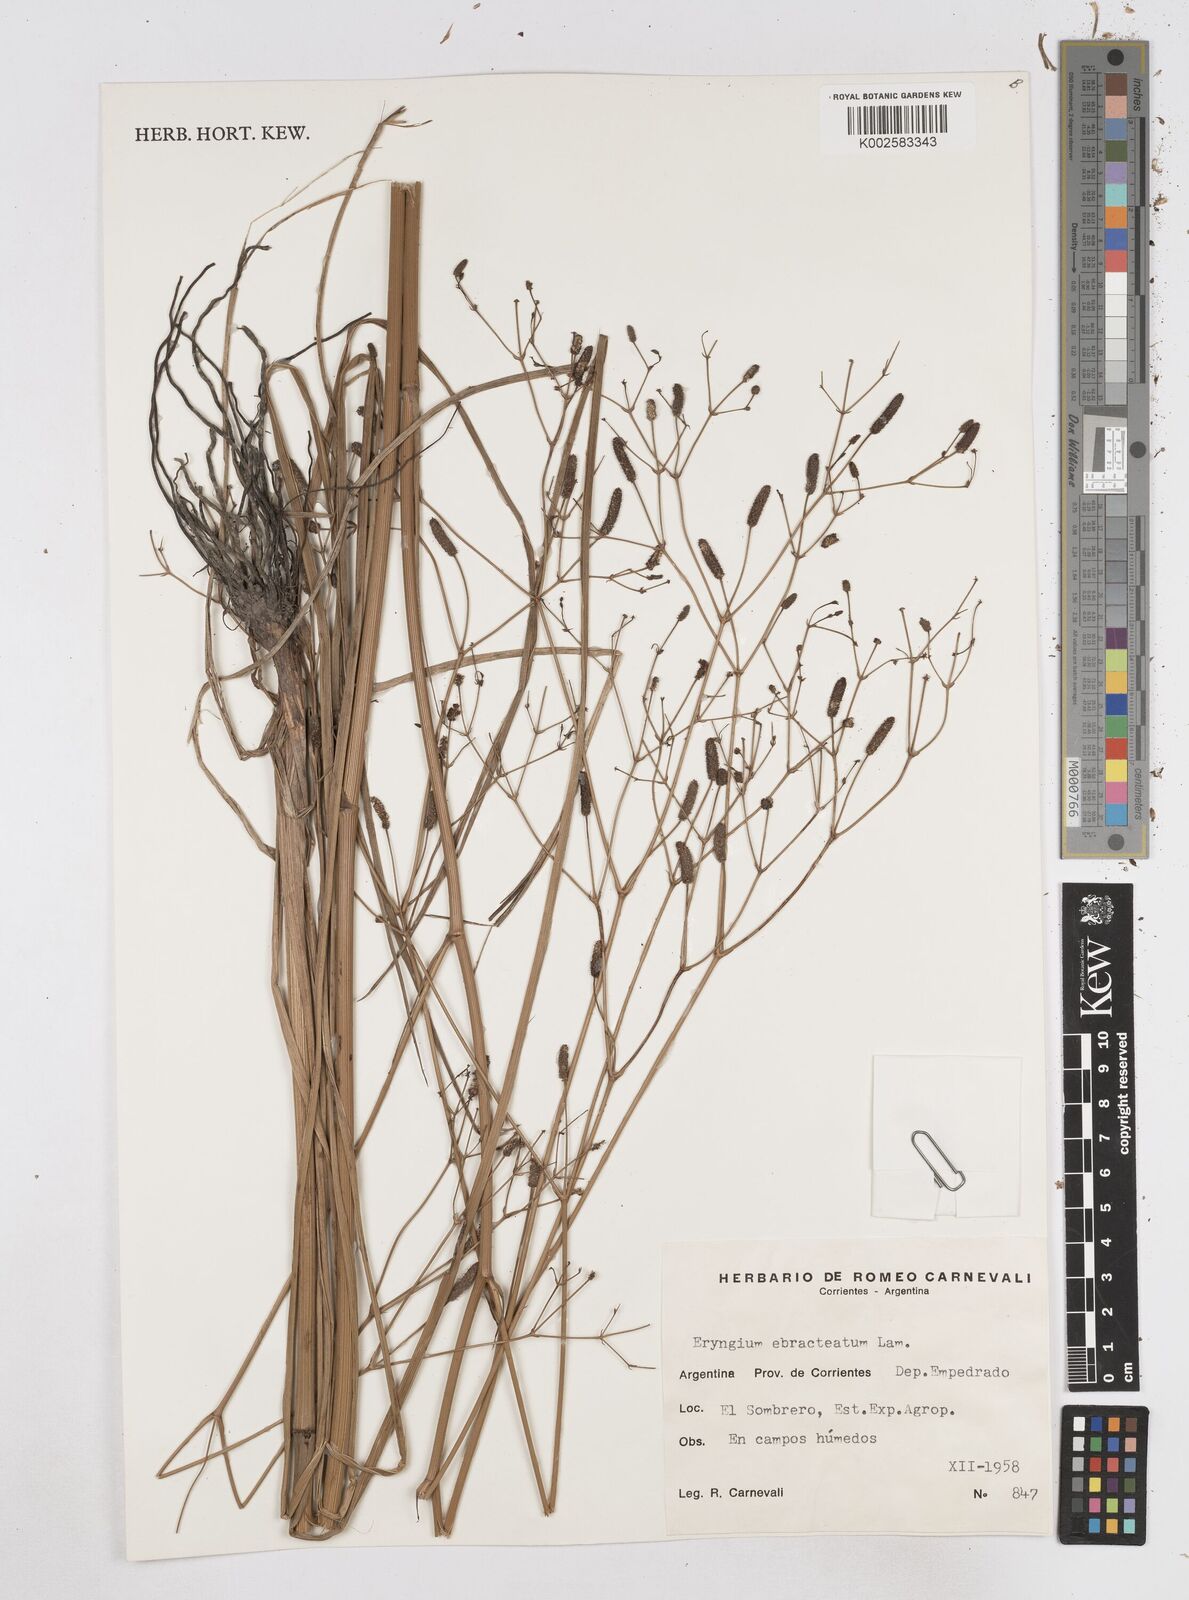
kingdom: Plantae
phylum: Tracheophyta
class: Magnoliopsida
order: Apiales
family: Apiaceae
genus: Eryngium
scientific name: Eryngium ebracteatum
